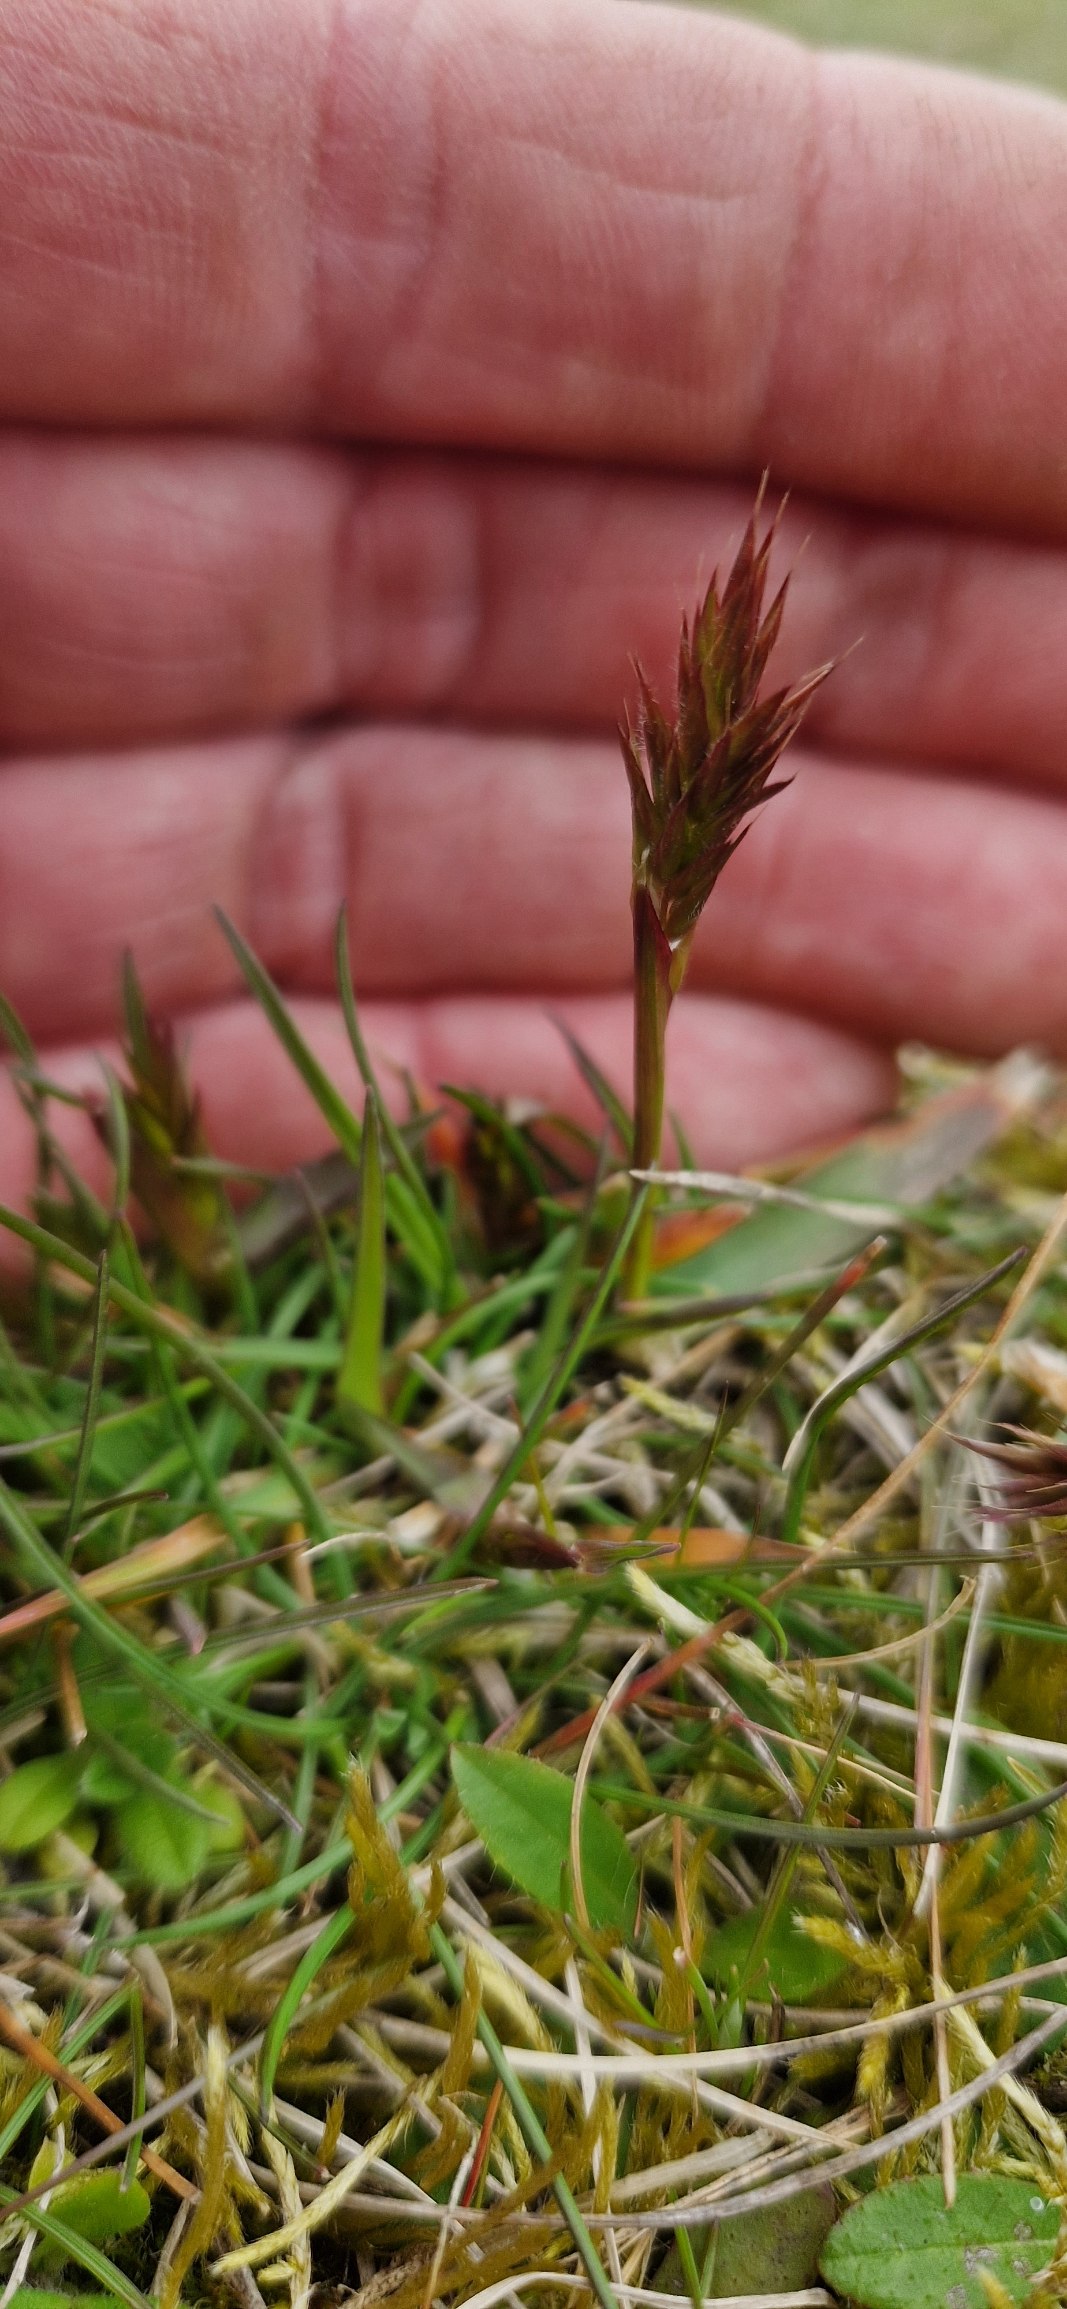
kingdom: Plantae
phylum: Tracheophyta
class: Liliopsida
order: Poales
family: Poaceae
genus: Anthoxanthum
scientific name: Anthoxanthum odoratum
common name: Vellugtende gulaks
